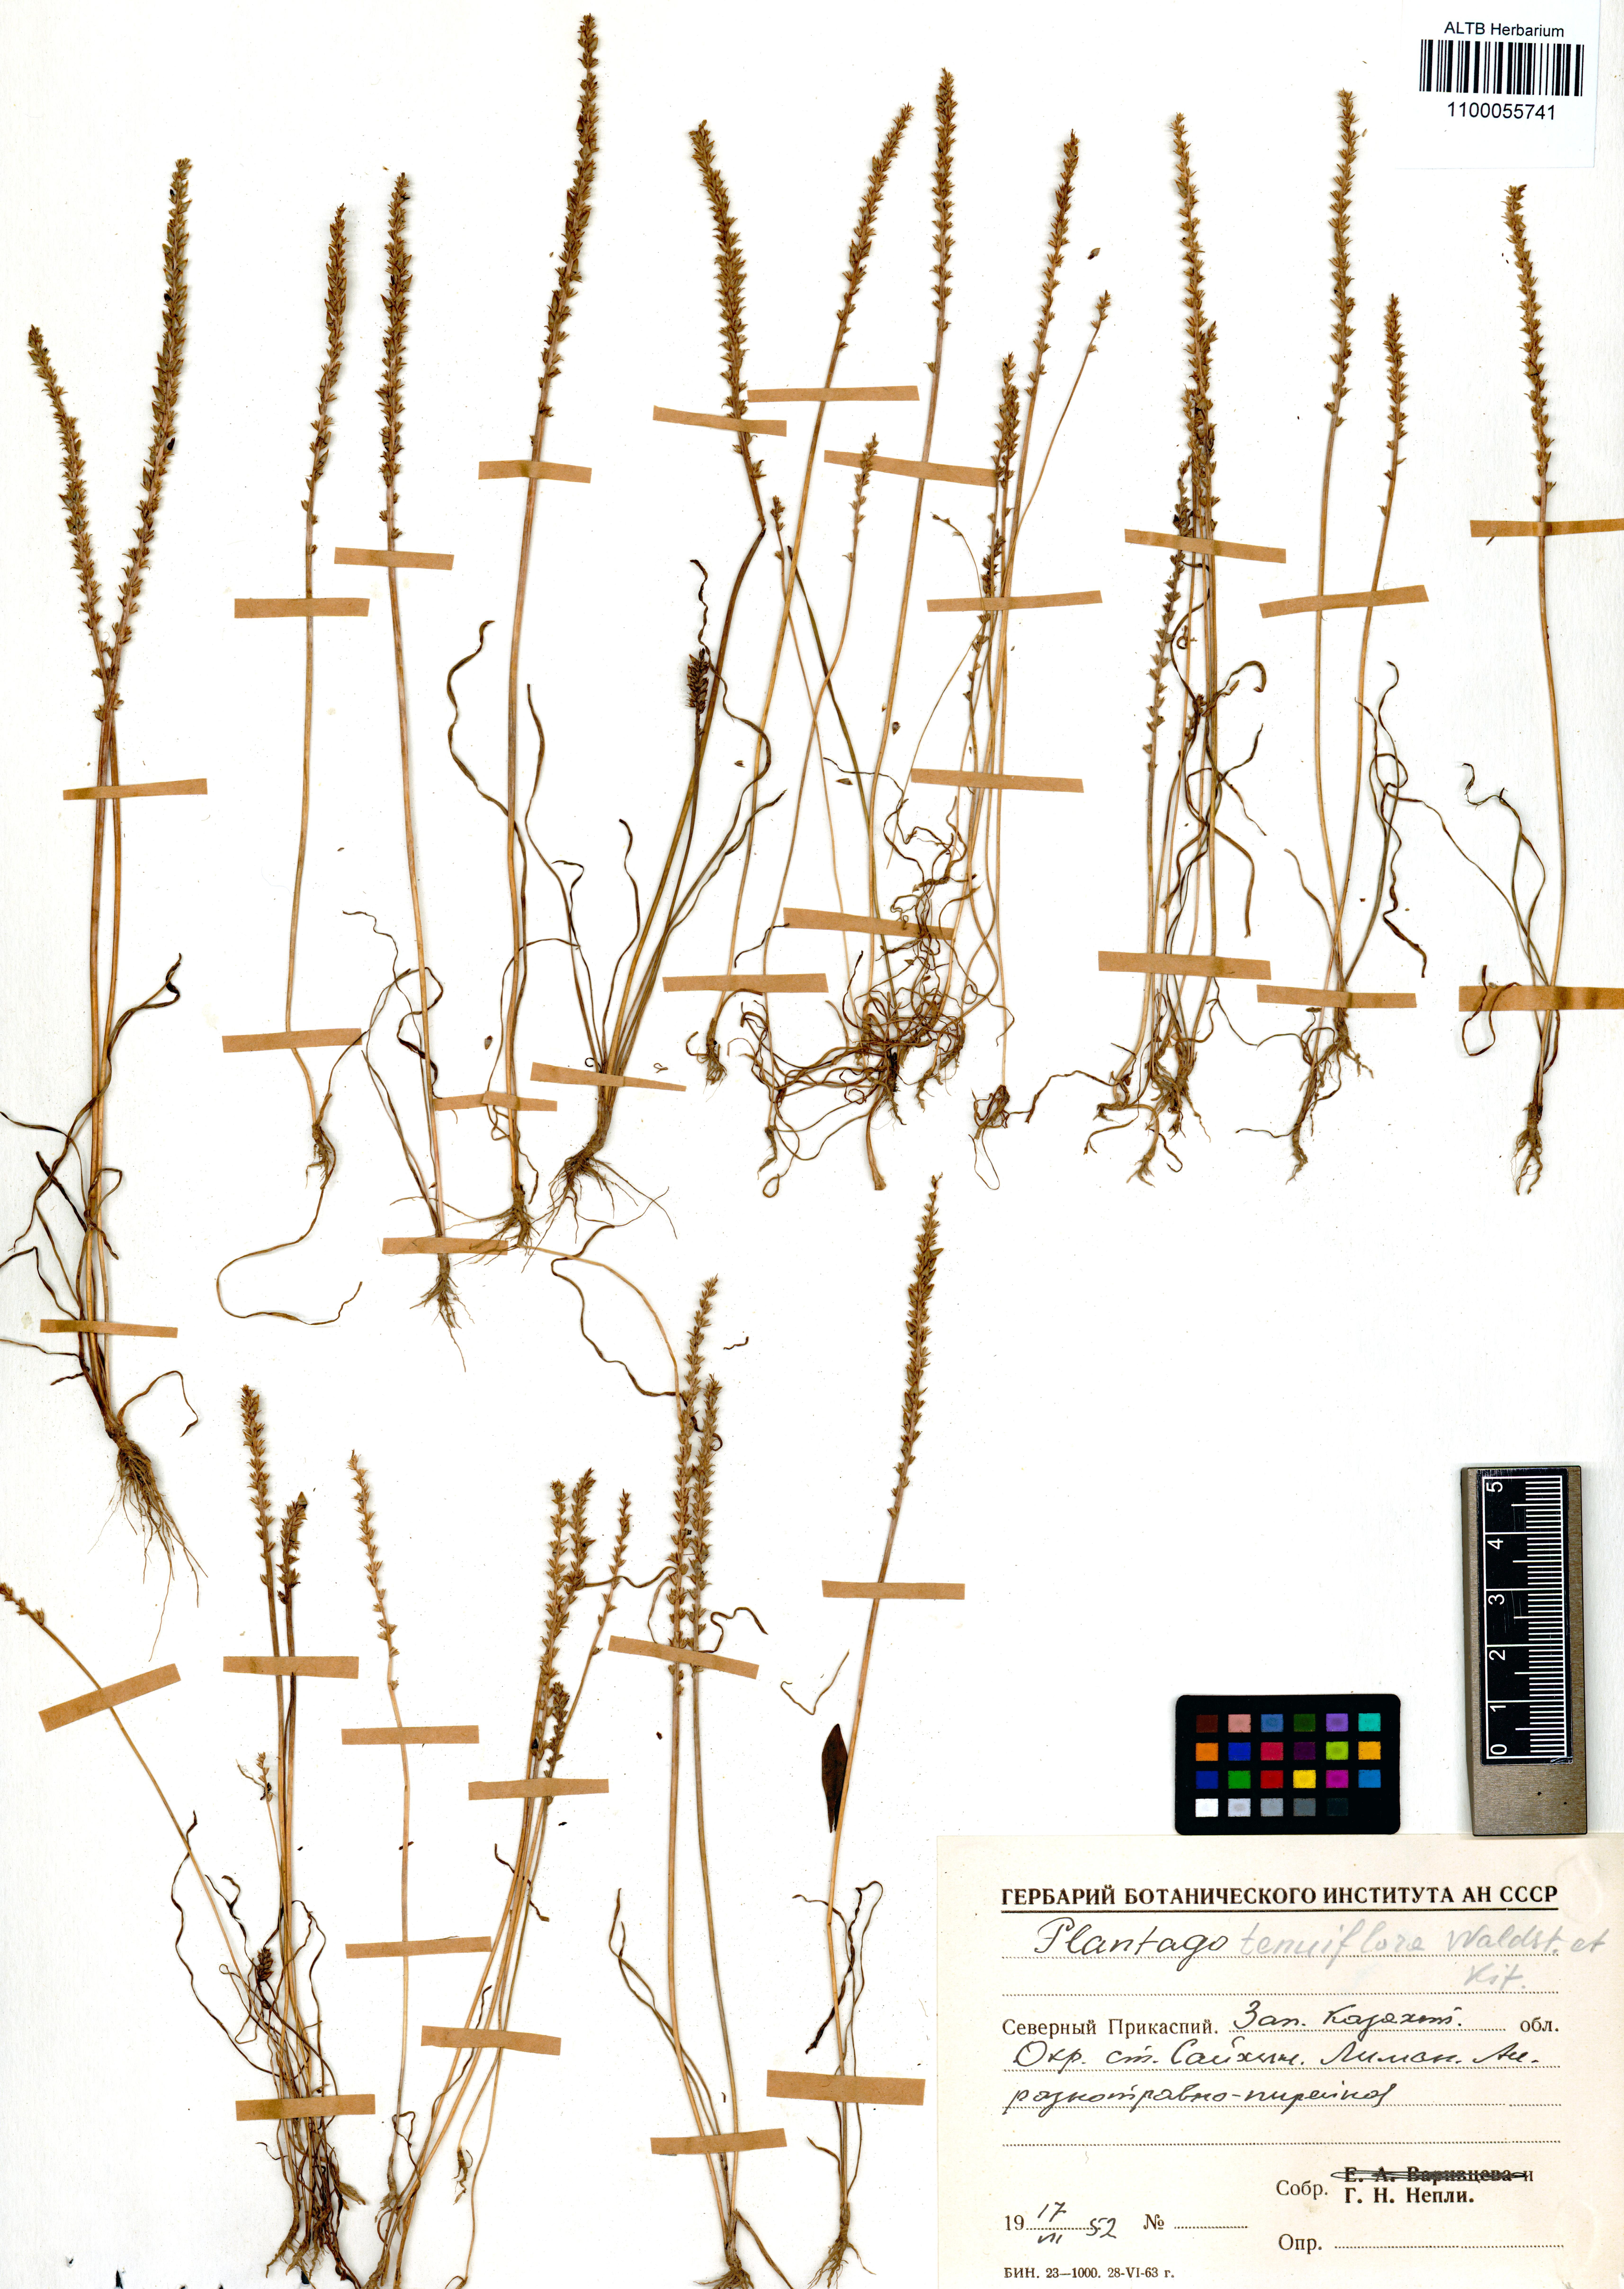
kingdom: Plantae
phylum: Tracheophyta
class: Magnoliopsida
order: Lamiales
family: Plantaginaceae
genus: Plantago
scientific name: Plantago tenuiflora
